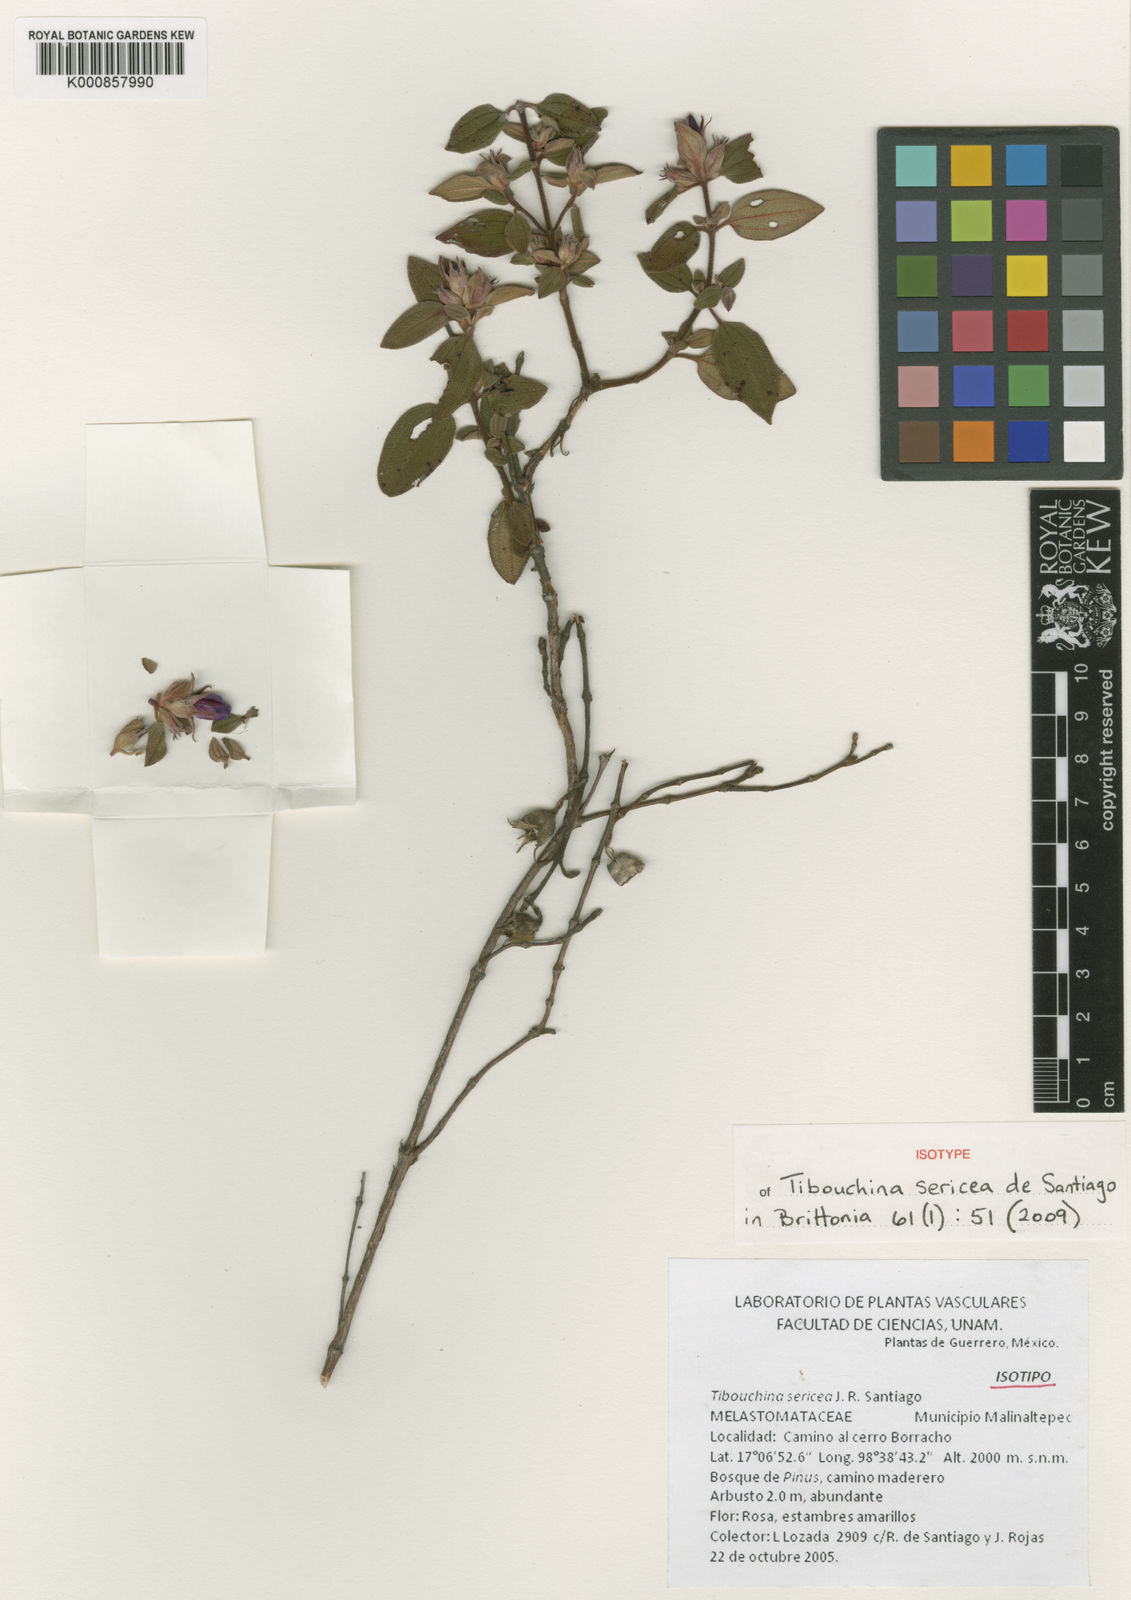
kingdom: Plantae
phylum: Tracheophyta
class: Magnoliopsida
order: Myrtales
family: Melastomataceae
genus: Chaetogastra
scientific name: Chaetogastra sericea
